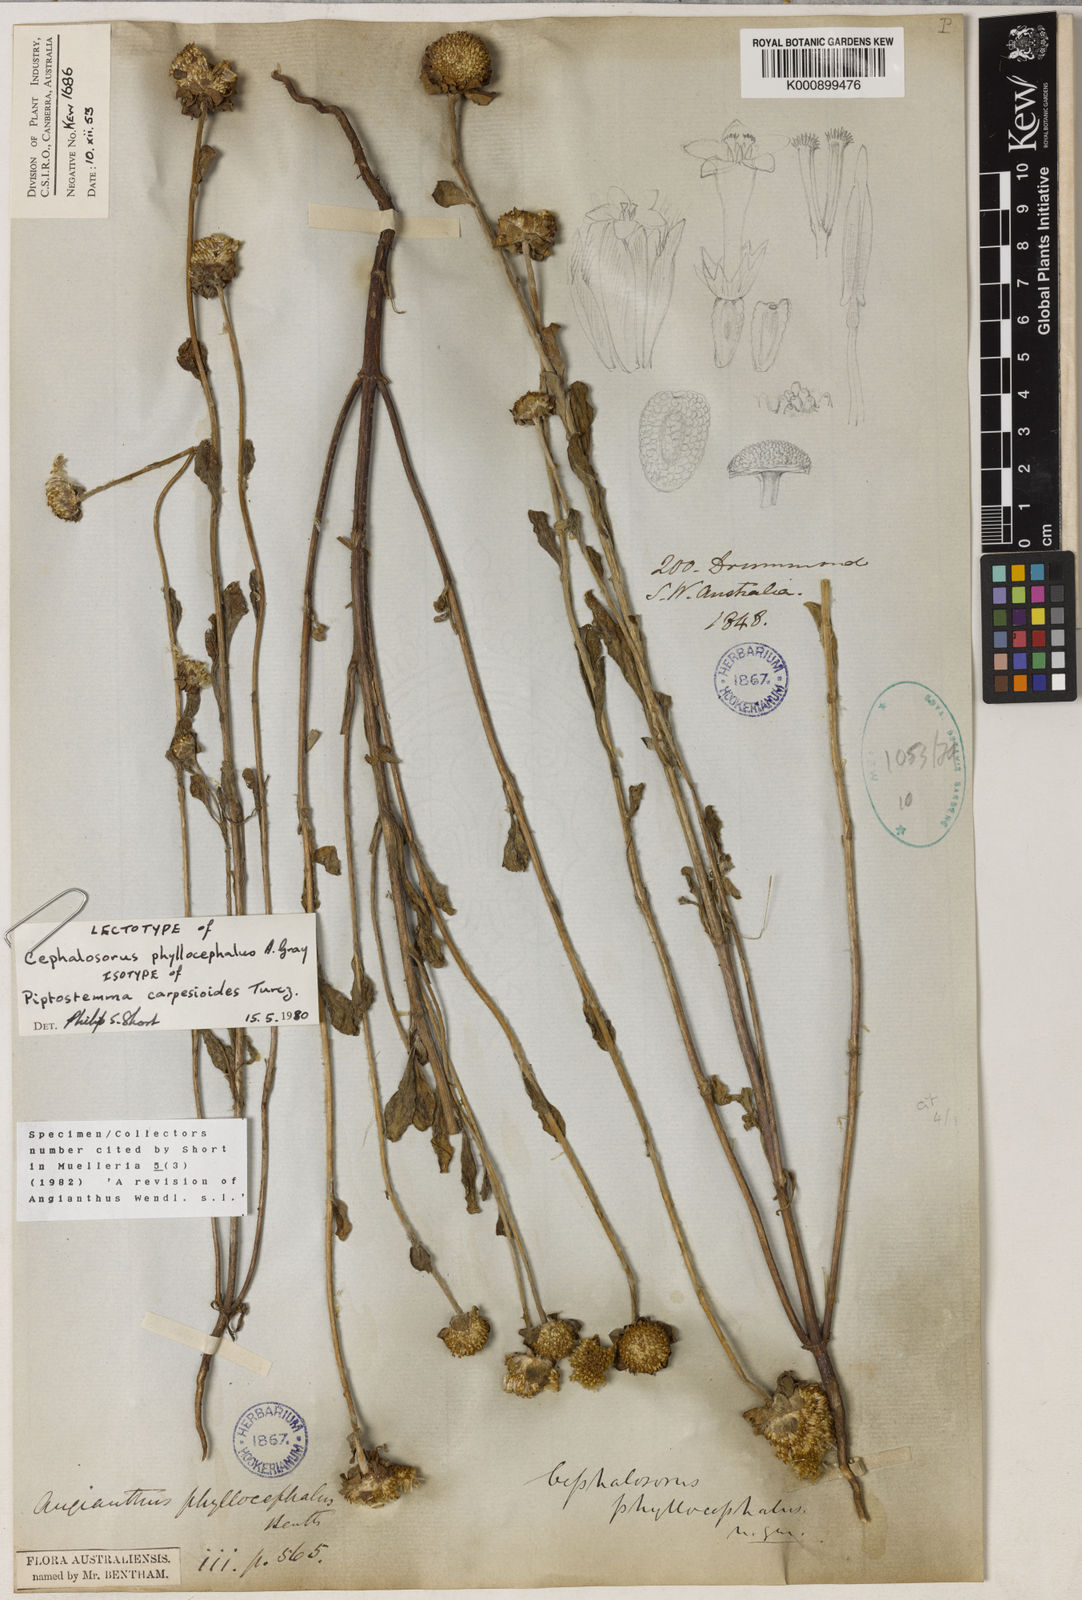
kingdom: Plantae
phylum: Tracheophyta
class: Magnoliopsida
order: Asterales
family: Asteraceae
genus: Cephalosorus
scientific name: Cephalosorus carpesioides
